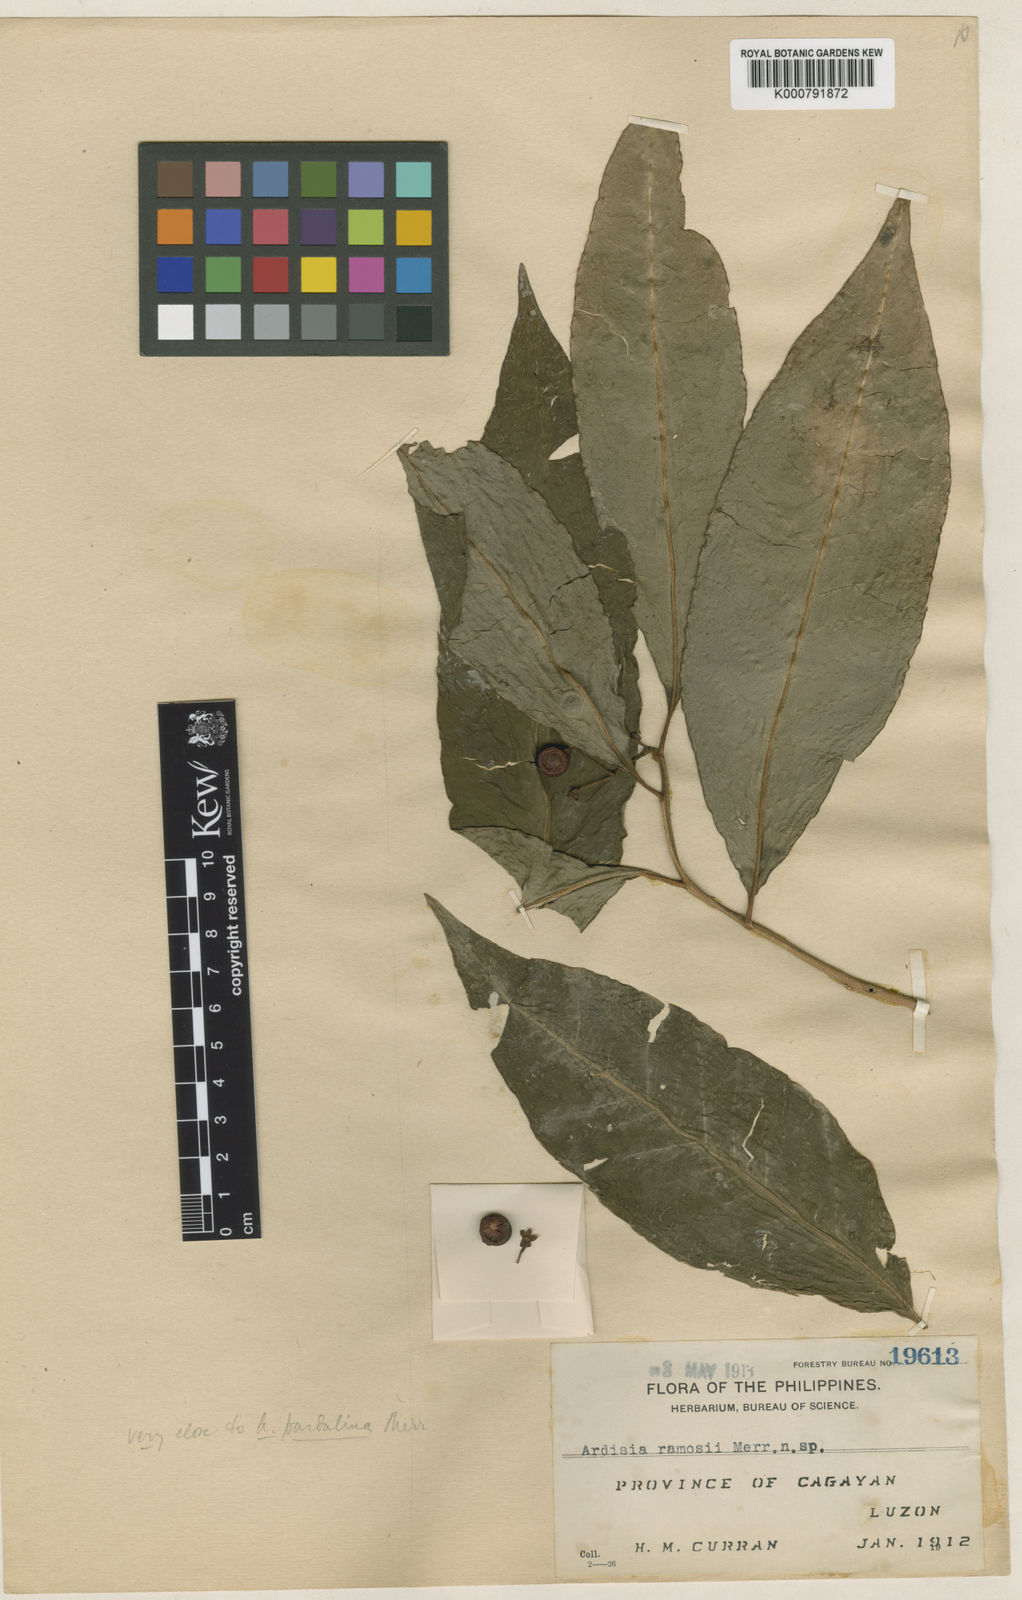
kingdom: Plantae
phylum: Tracheophyta
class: Magnoliopsida
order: Ericales
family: Primulaceae
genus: Ardisia
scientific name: Ardisia polysticta
